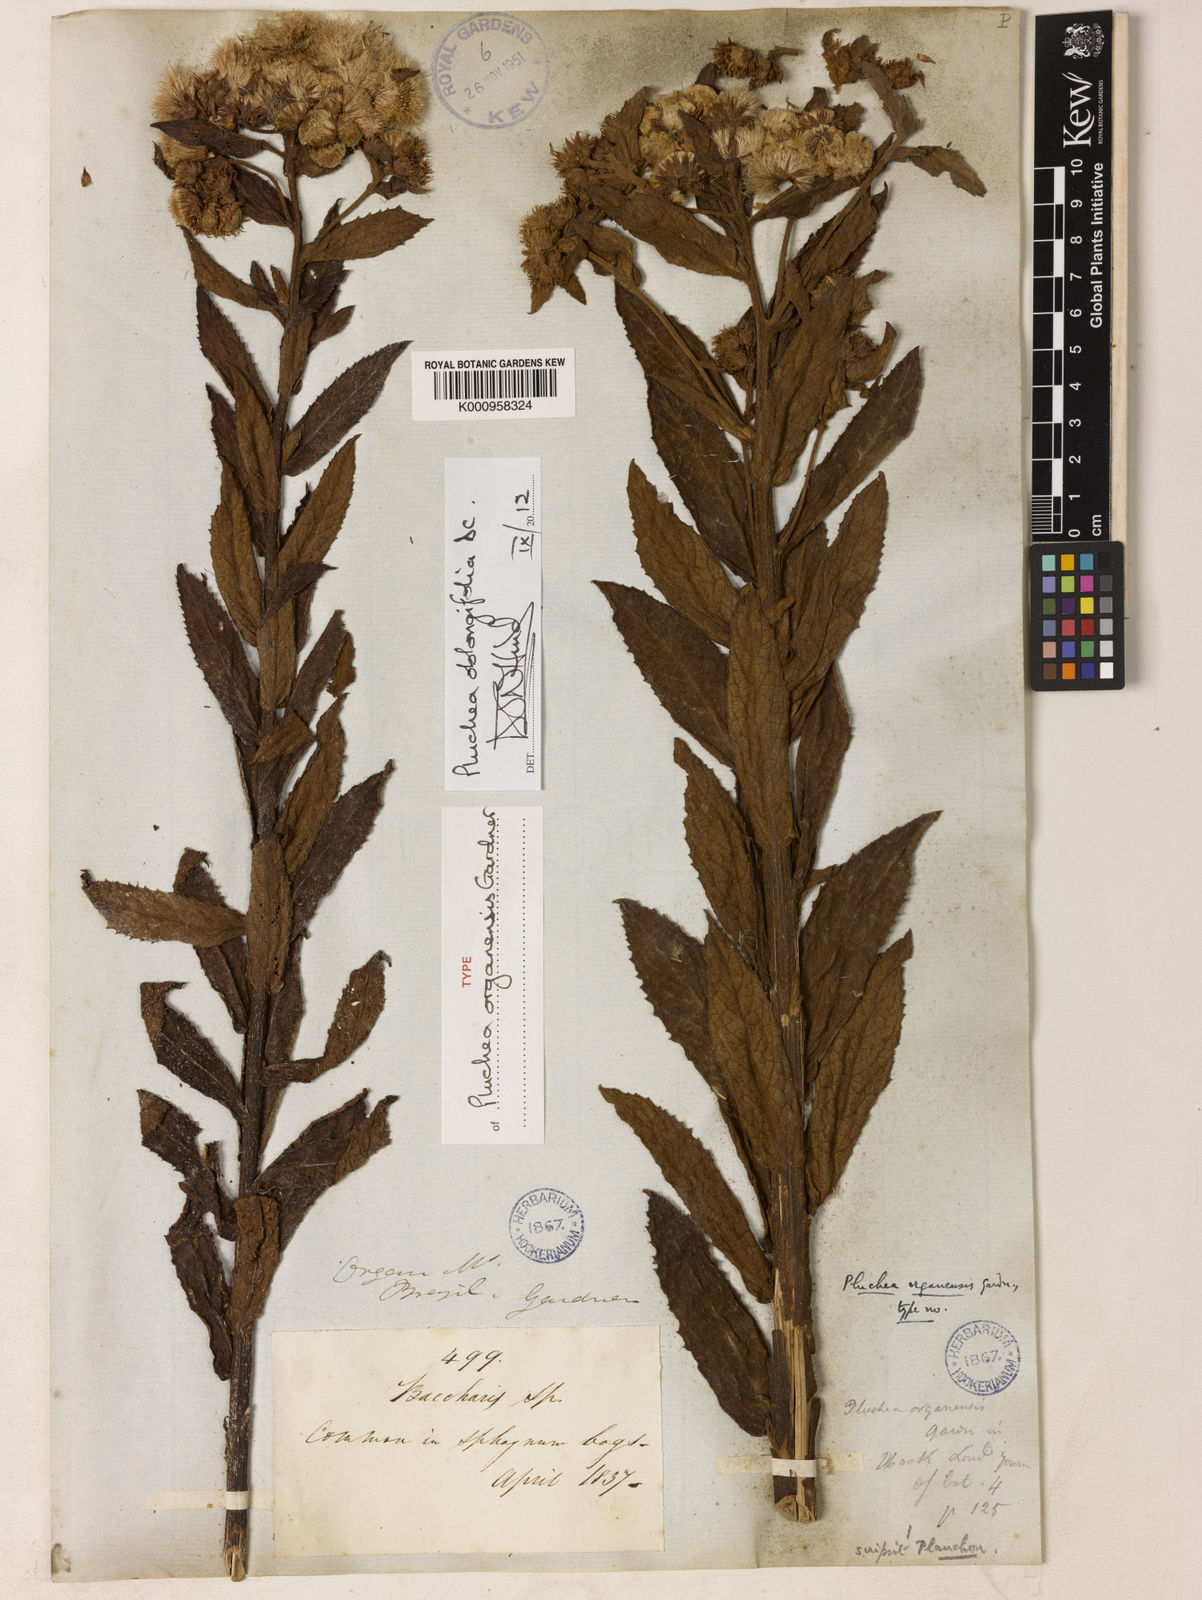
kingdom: Plantae
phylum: Tracheophyta
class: Magnoliopsida
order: Asterales
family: Asteraceae
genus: Pluchea
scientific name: Pluchea oblongifolia
